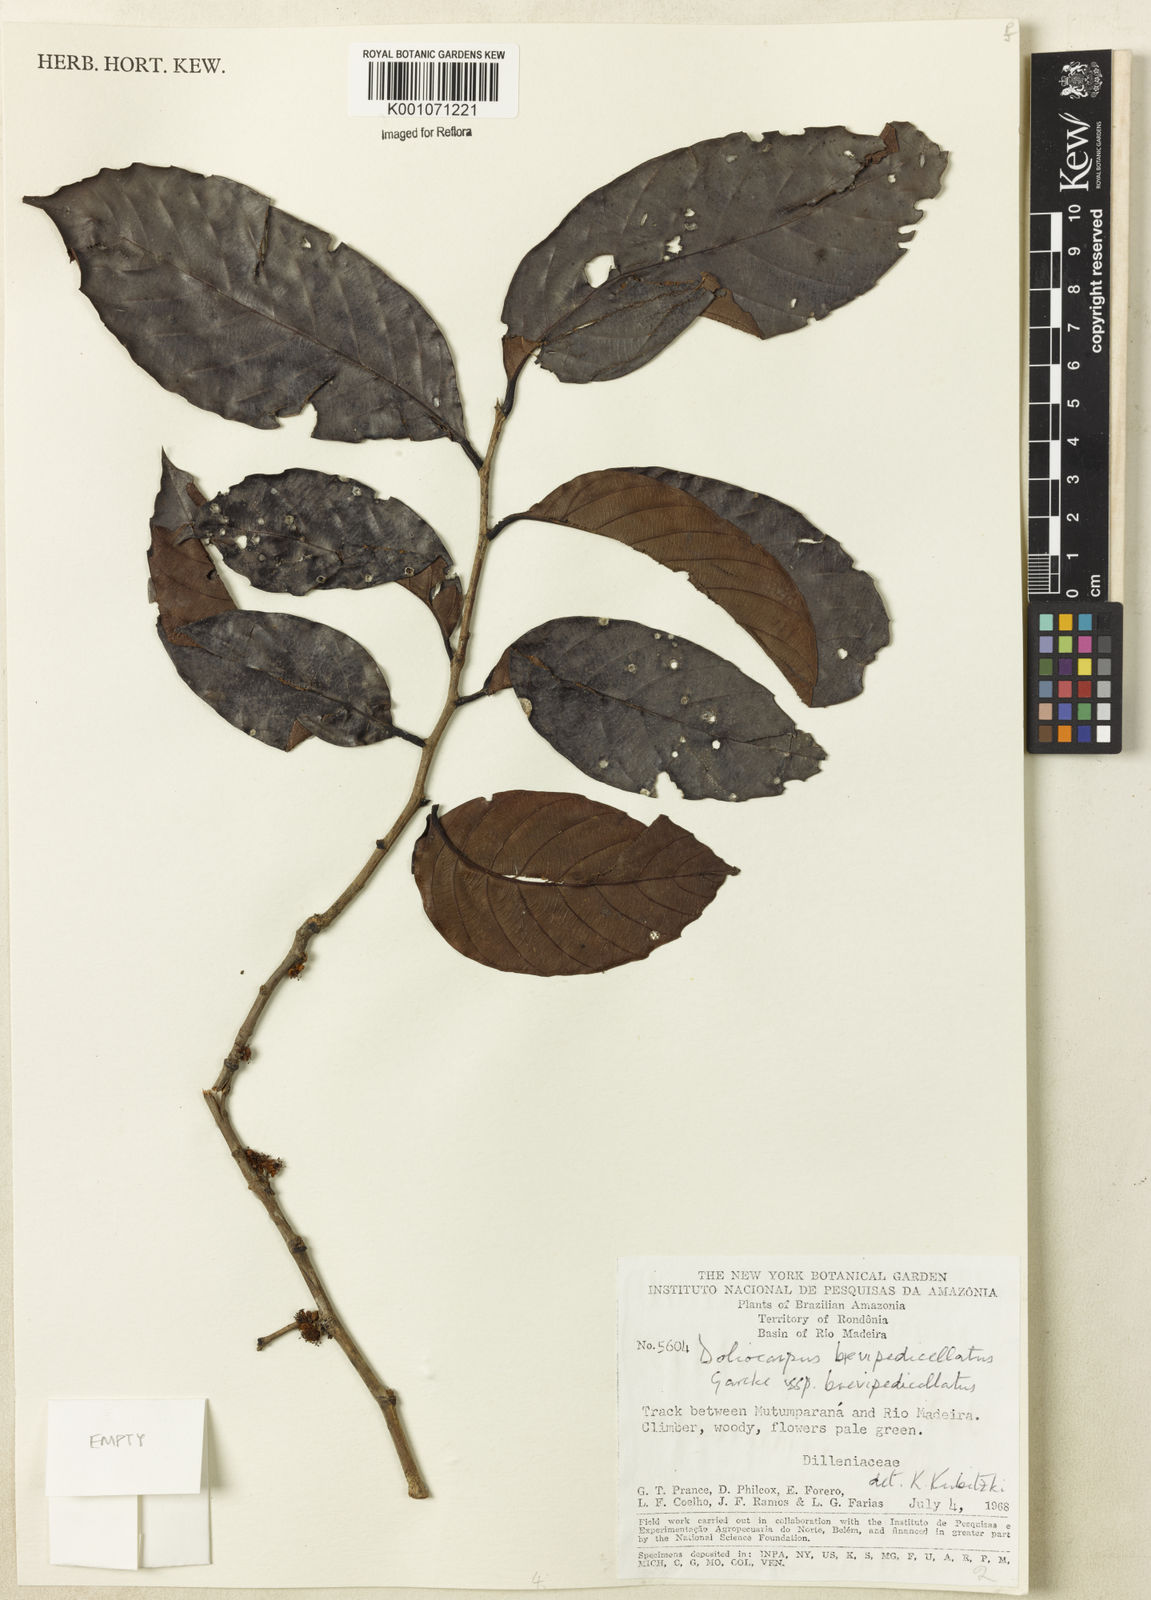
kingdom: Plantae
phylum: Tracheophyta
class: Magnoliopsida
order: Dilleniales
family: Dilleniaceae
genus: Doliocarpus
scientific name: Doliocarpus brevipedicellatus
